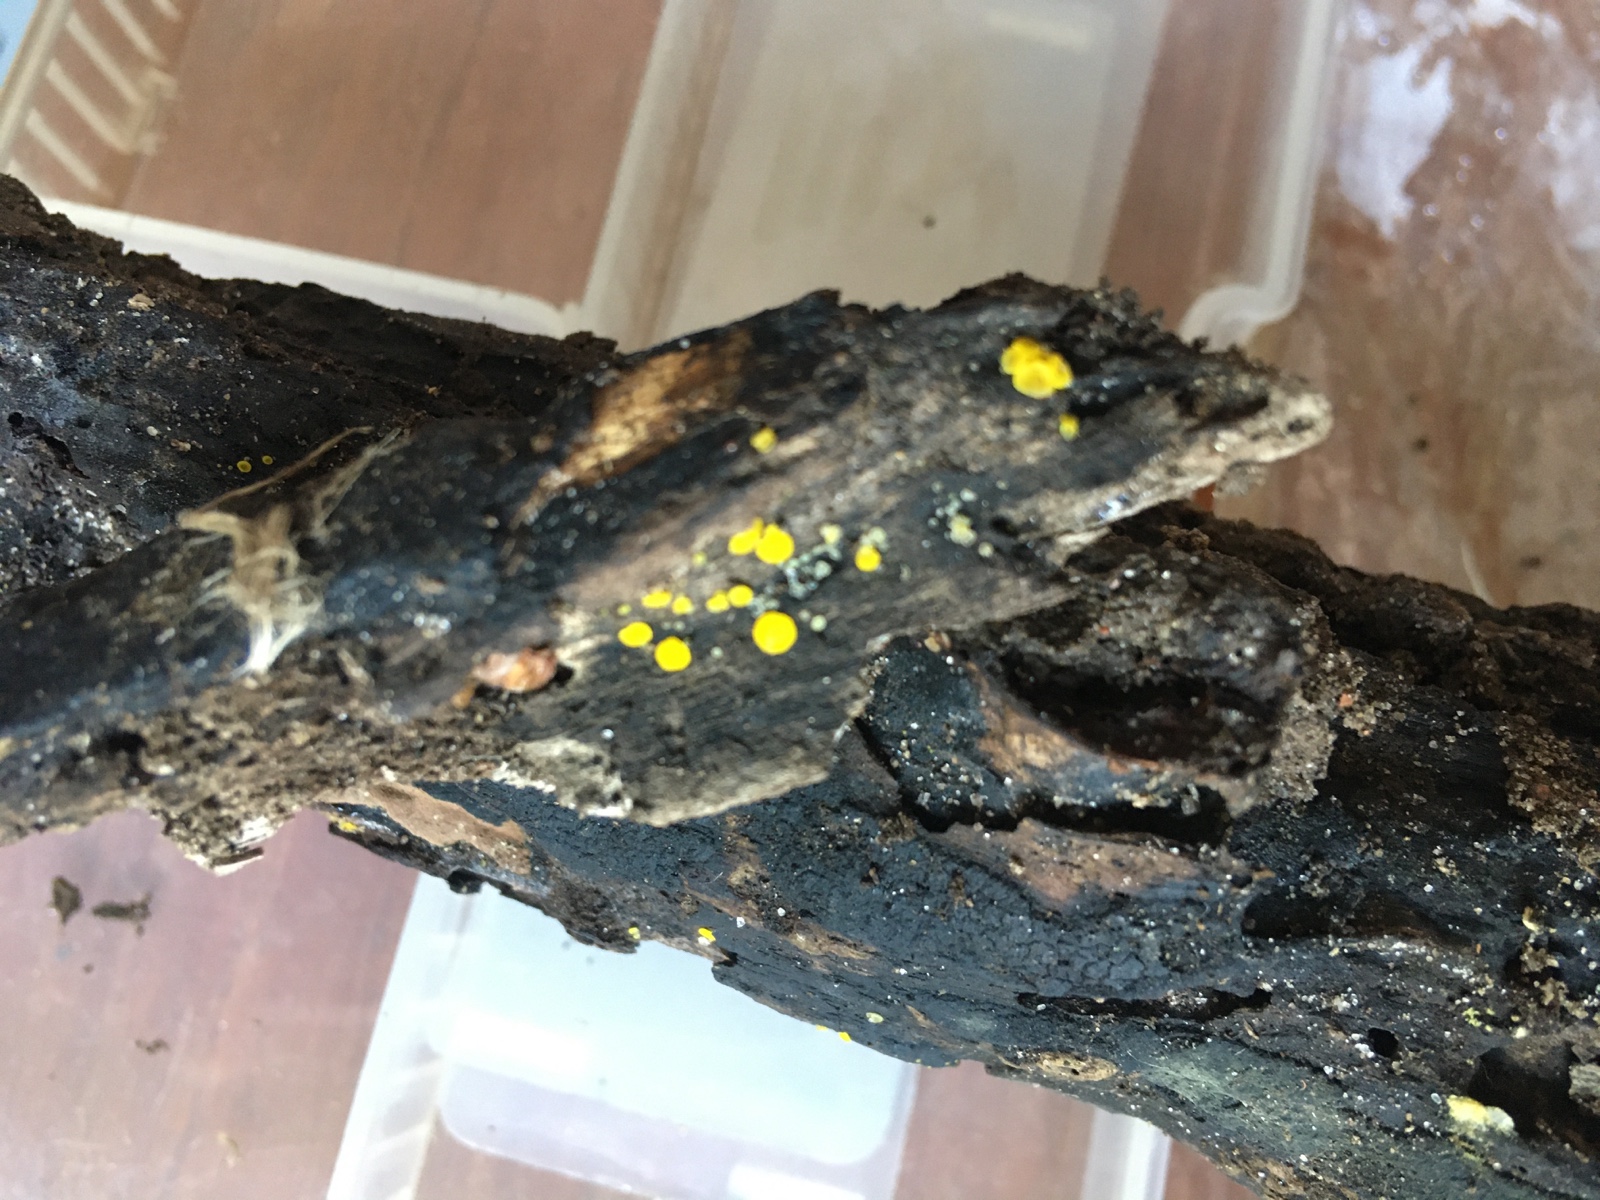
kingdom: Fungi
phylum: Ascomycota
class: Leotiomycetes
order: Helotiales
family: Pezizellaceae
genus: Calycina
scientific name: Calycina claroflava
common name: snyltende gulskive
